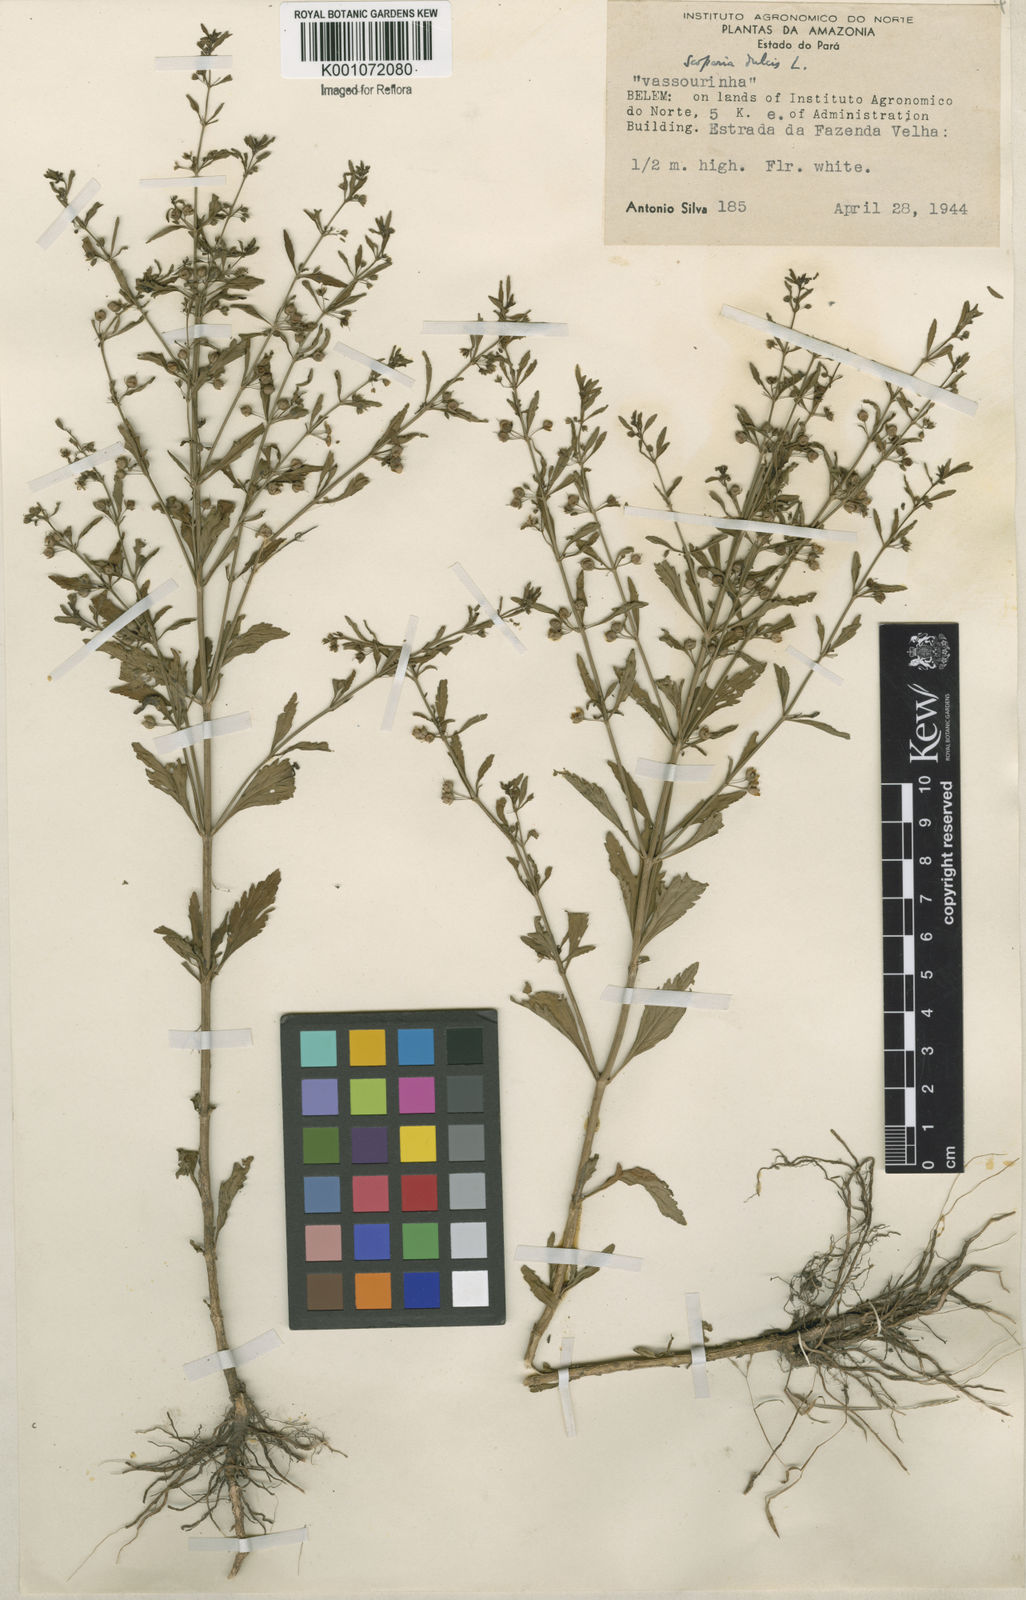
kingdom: Plantae
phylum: Tracheophyta
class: Magnoliopsida
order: Lamiales
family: Plantaginaceae
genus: Scoparia
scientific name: Scoparia dulcis
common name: Scoparia-weed
